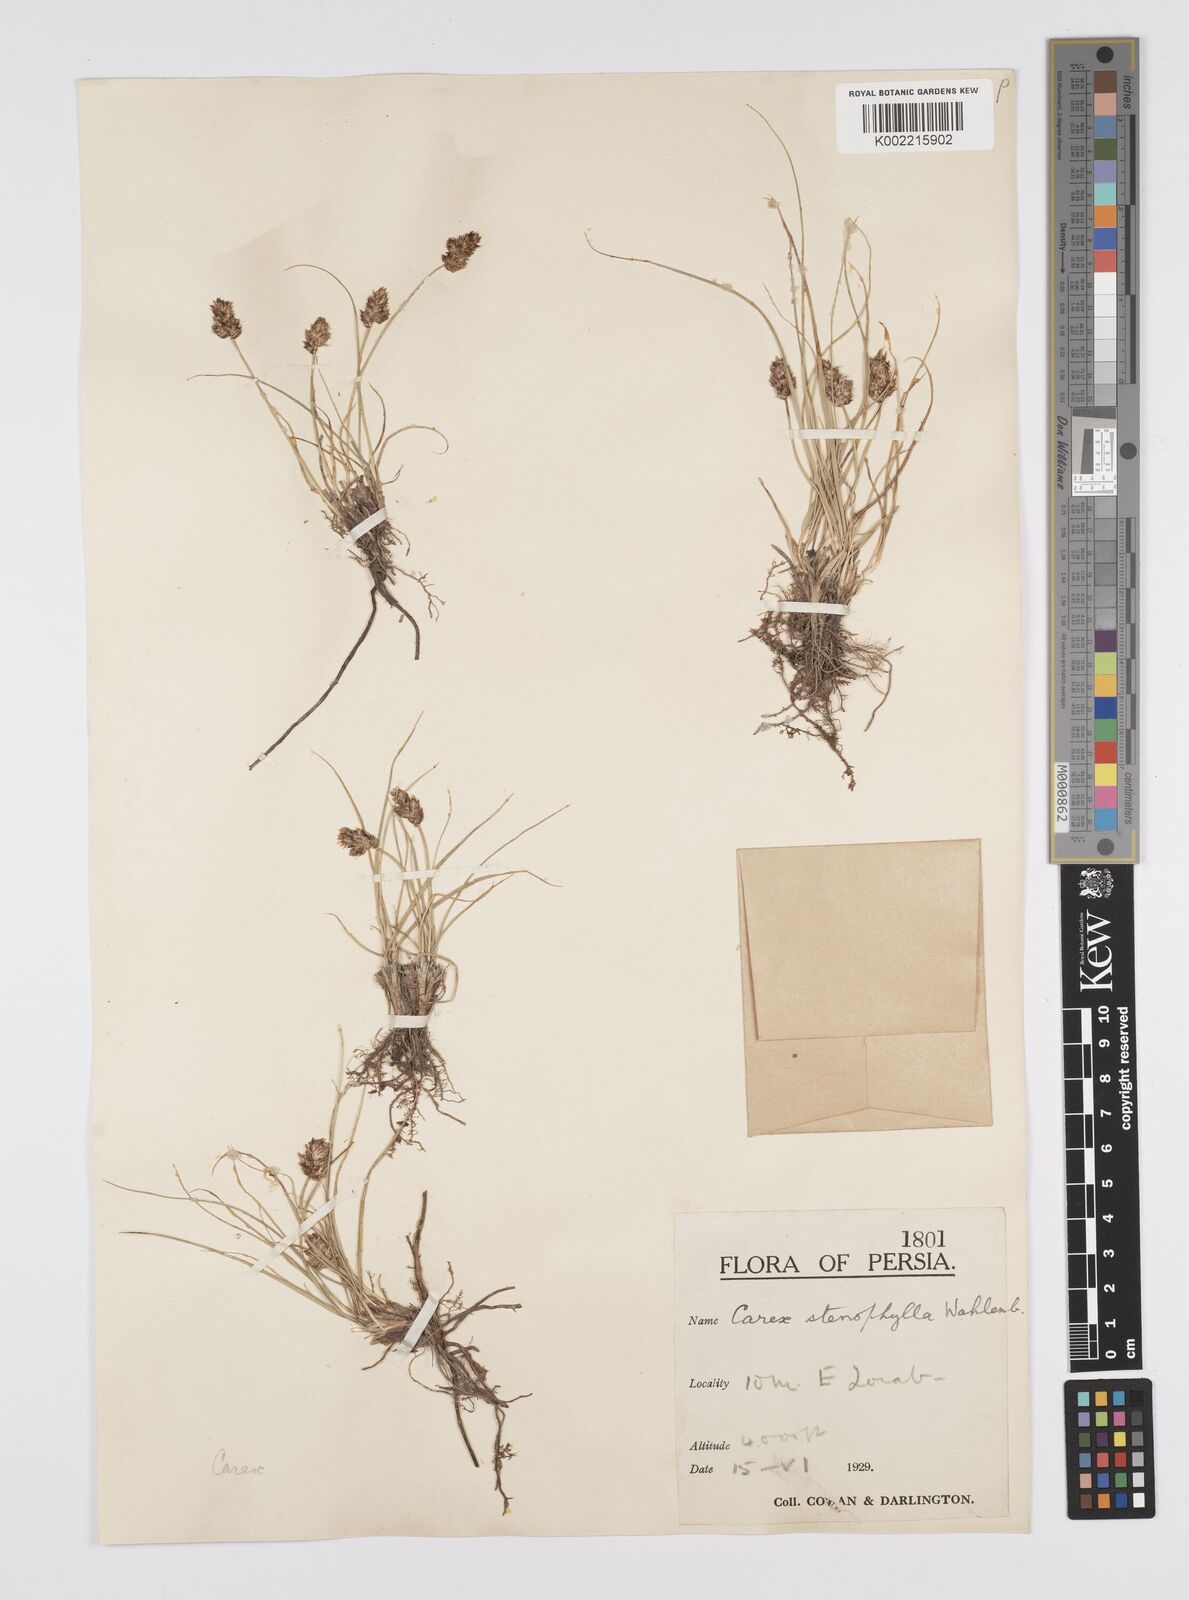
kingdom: Plantae
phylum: Tracheophyta
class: Liliopsida
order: Poales
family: Cyperaceae
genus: Carex
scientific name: Carex stenophylla
